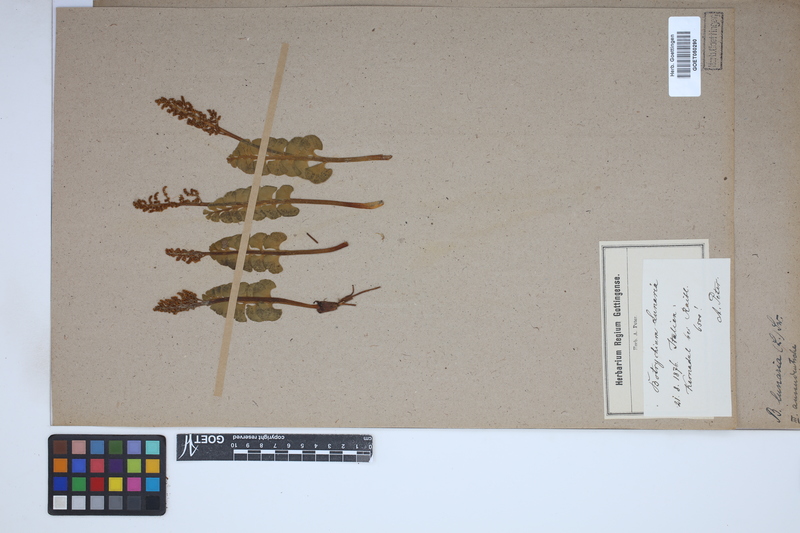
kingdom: Plantae
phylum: Tracheophyta
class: Polypodiopsida
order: Ophioglossales
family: Ophioglossaceae
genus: Botrychium
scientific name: Botrychium lunaria
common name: Moonwort
